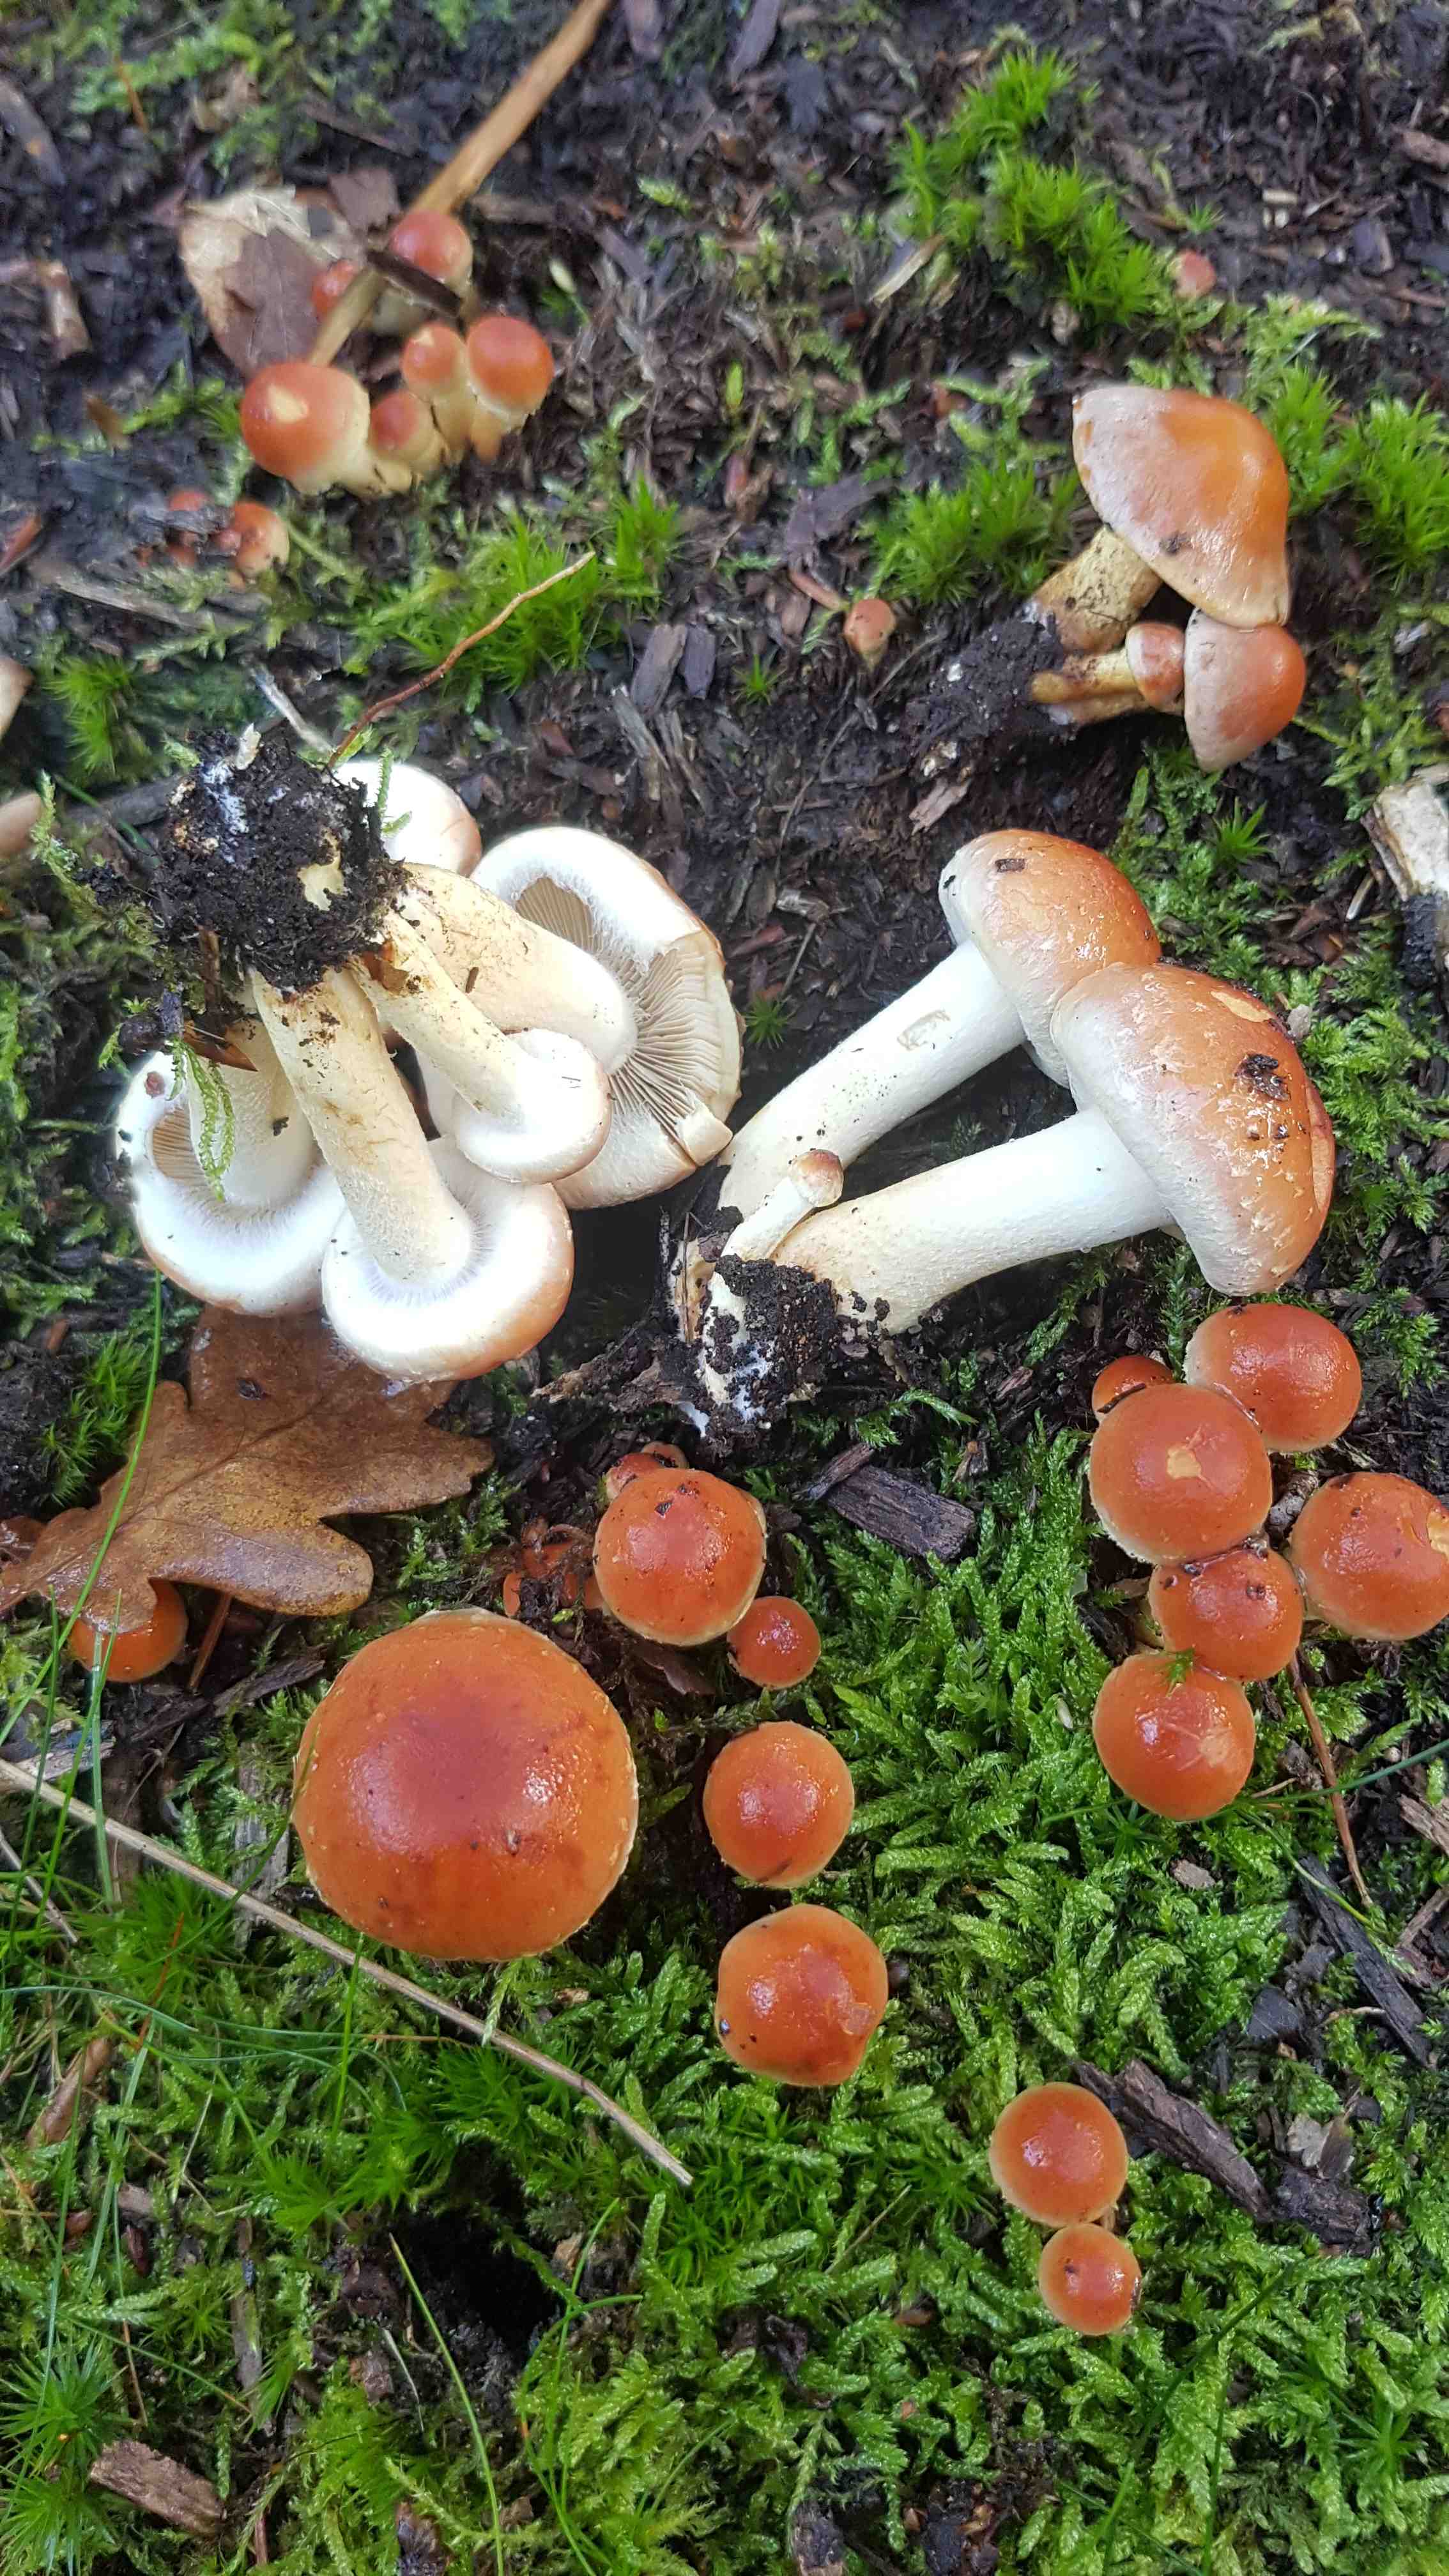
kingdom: Fungi
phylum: Basidiomycota
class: Agaricomycetes
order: Agaricales
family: Strophariaceae
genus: Hypholoma
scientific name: Hypholoma lateritium
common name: teglrød svovlhat
